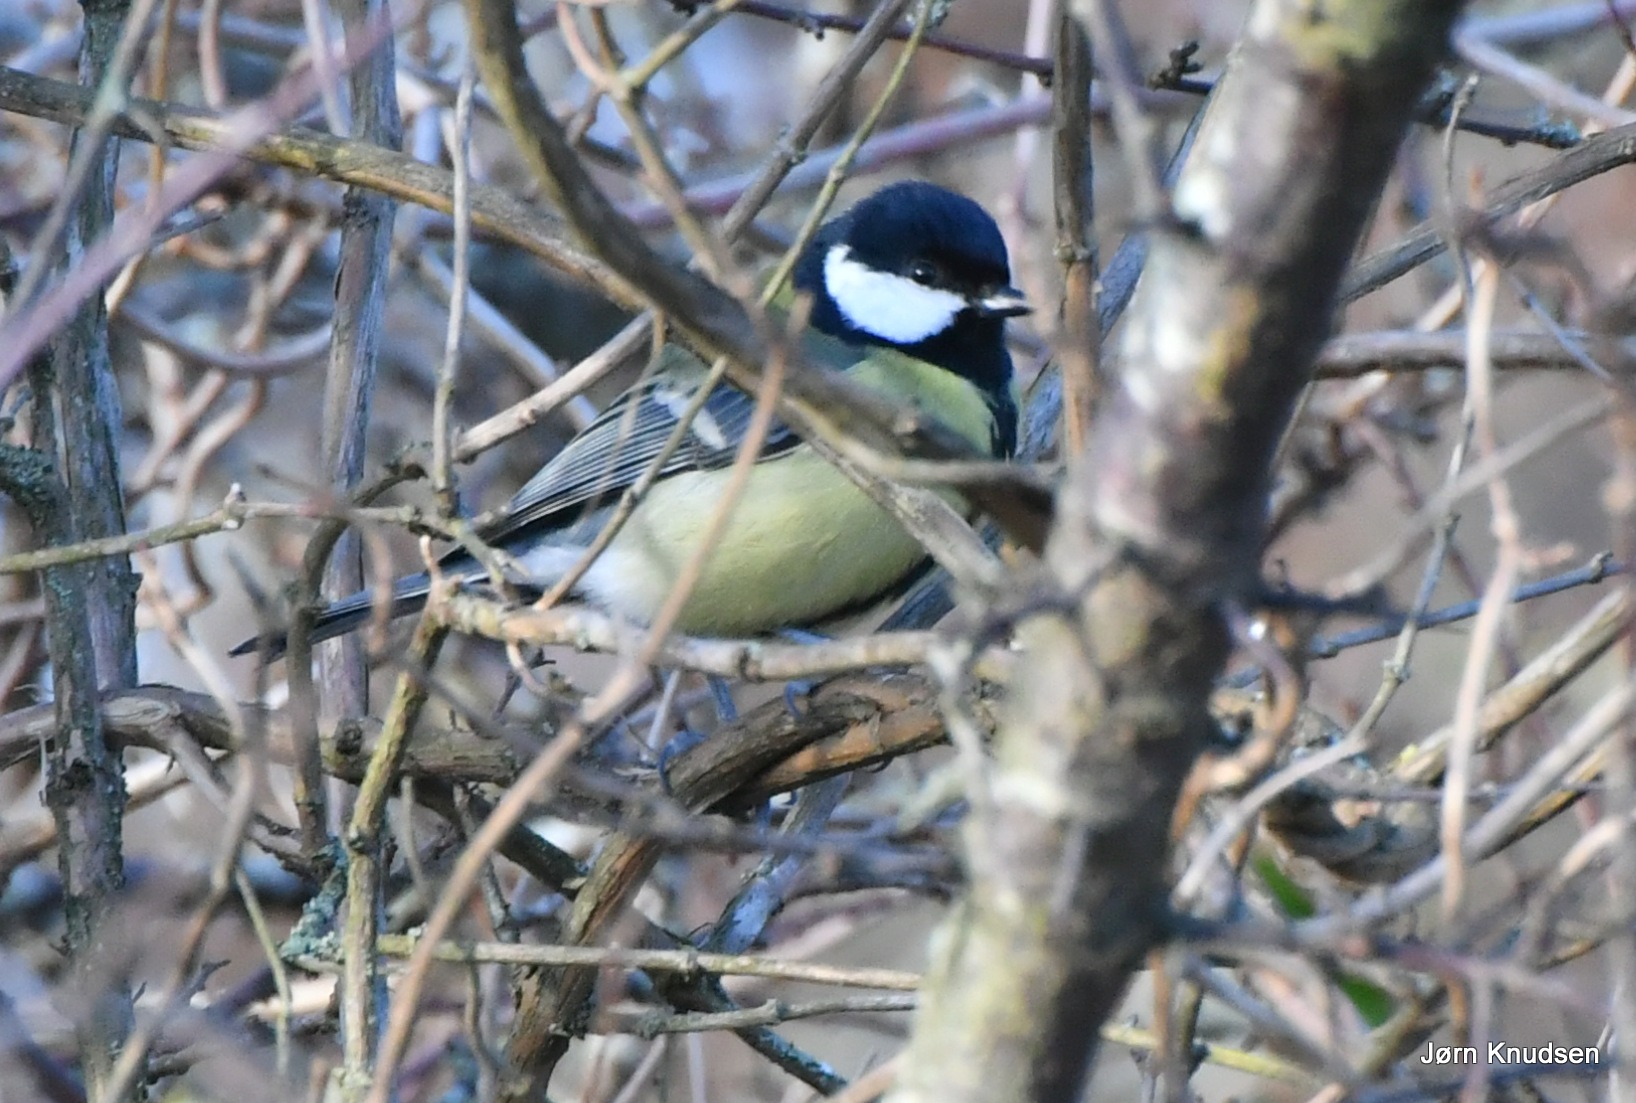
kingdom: Animalia
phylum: Chordata
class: Aves
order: Passeriformes
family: Paridae
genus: Parus
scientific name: Parus major
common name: Musvit
